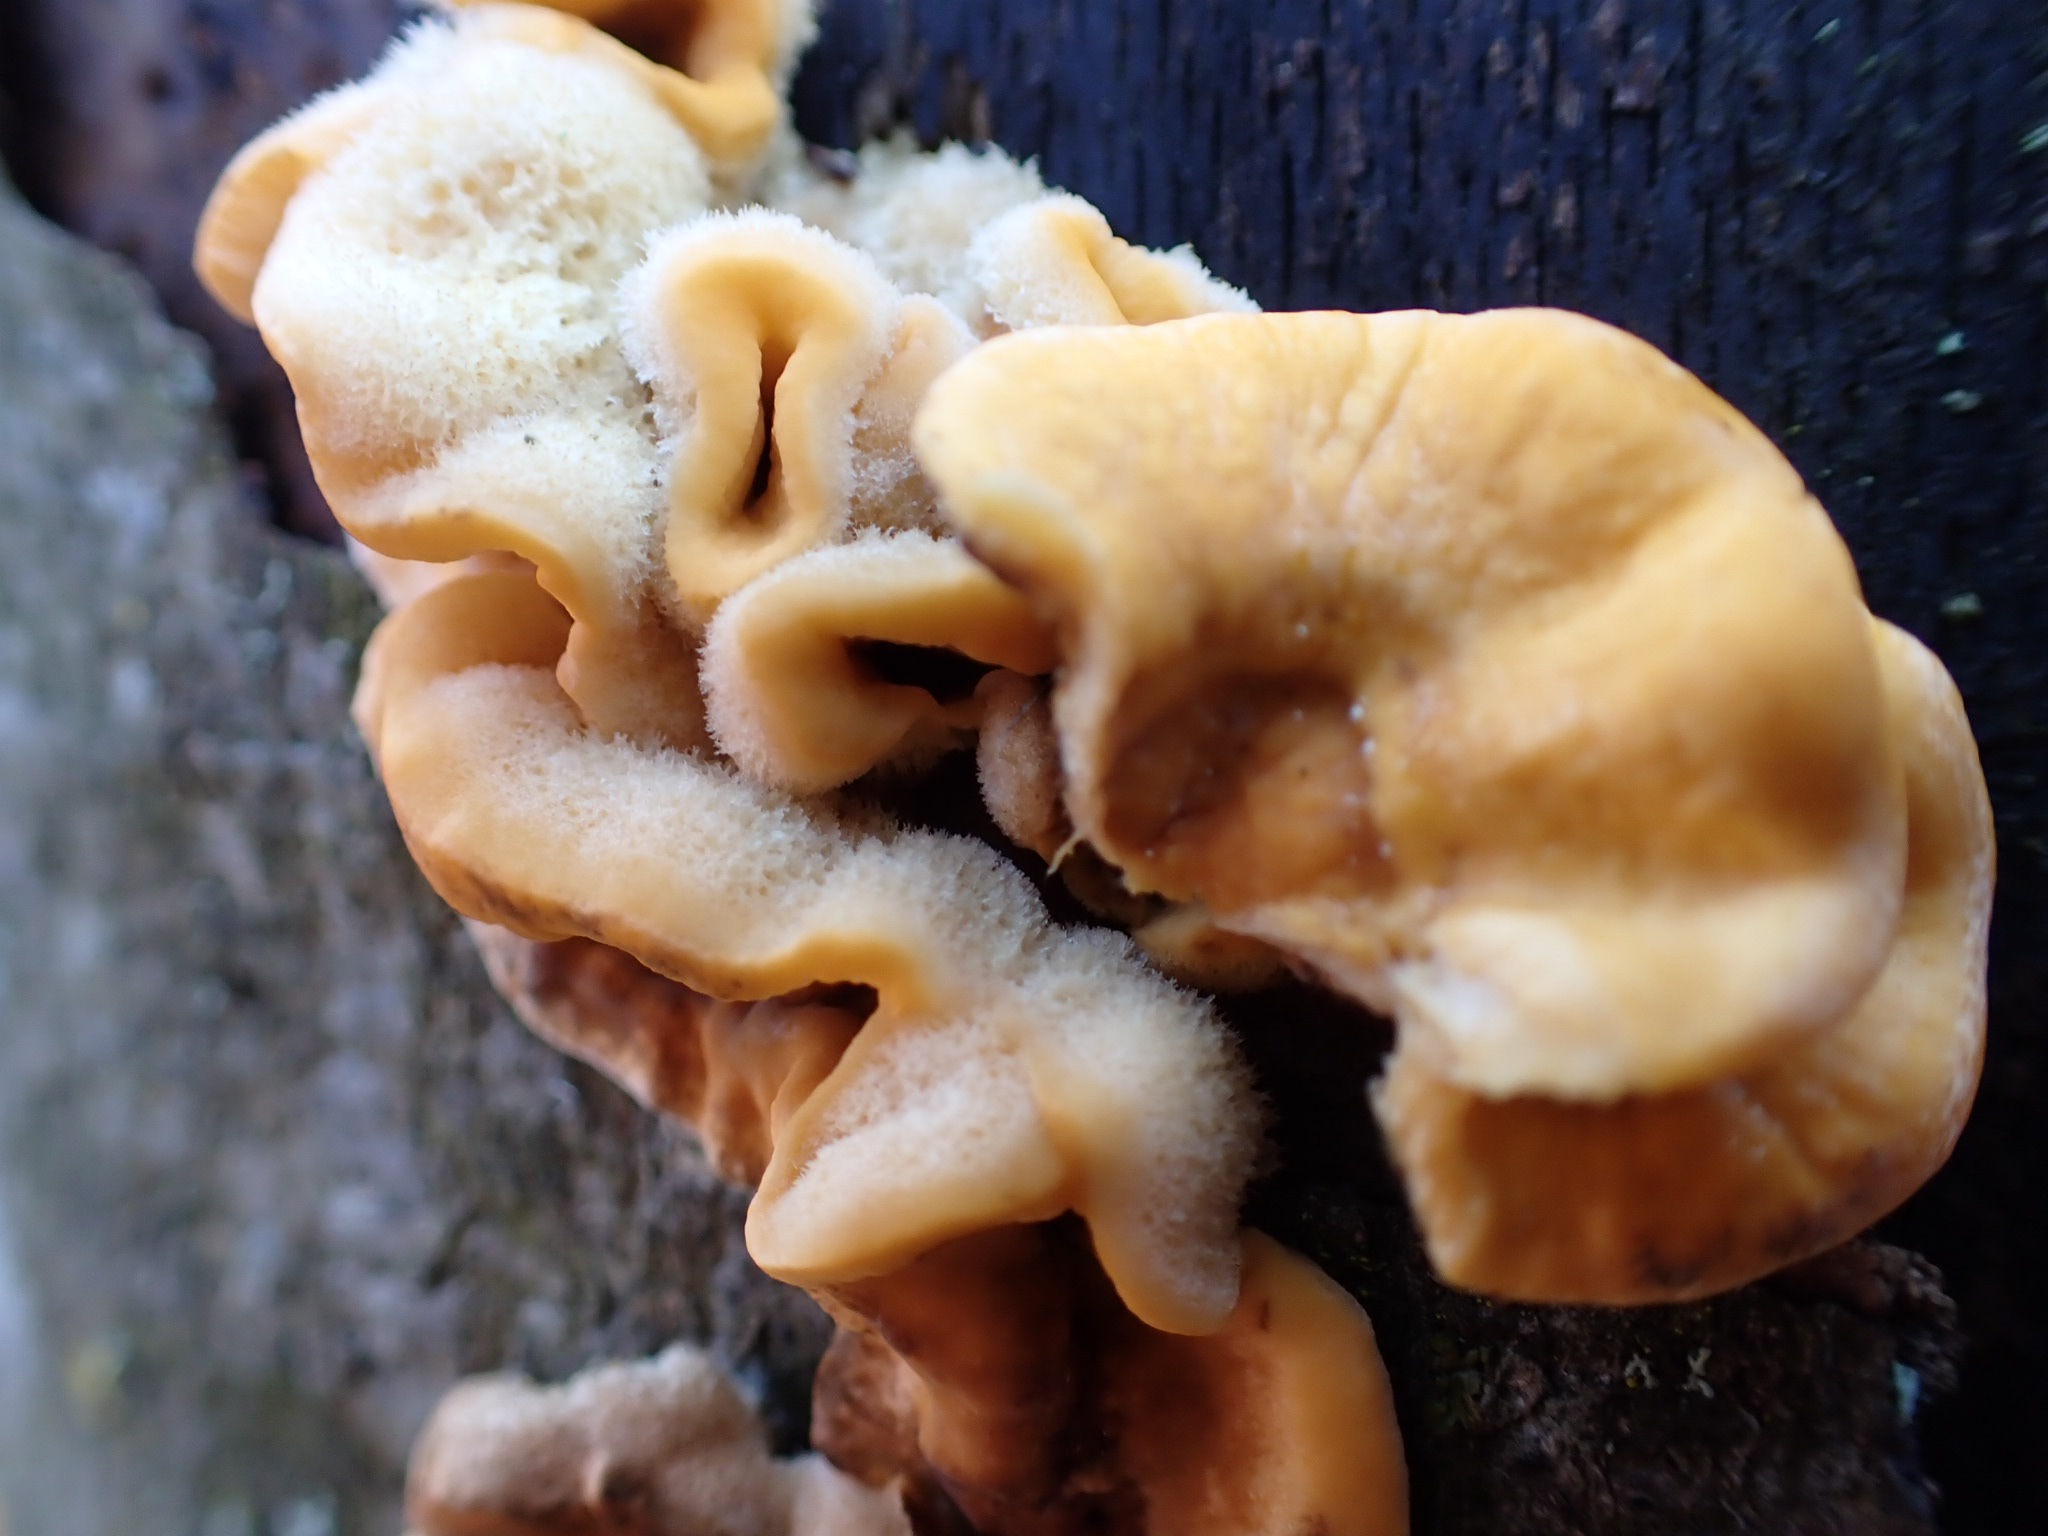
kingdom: Fungi
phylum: Basidiomycota
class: Agaricomycetes
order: Russulales
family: Stereaceae
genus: Stereum
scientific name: Stereum hirsutum
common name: håret lædersvamp
